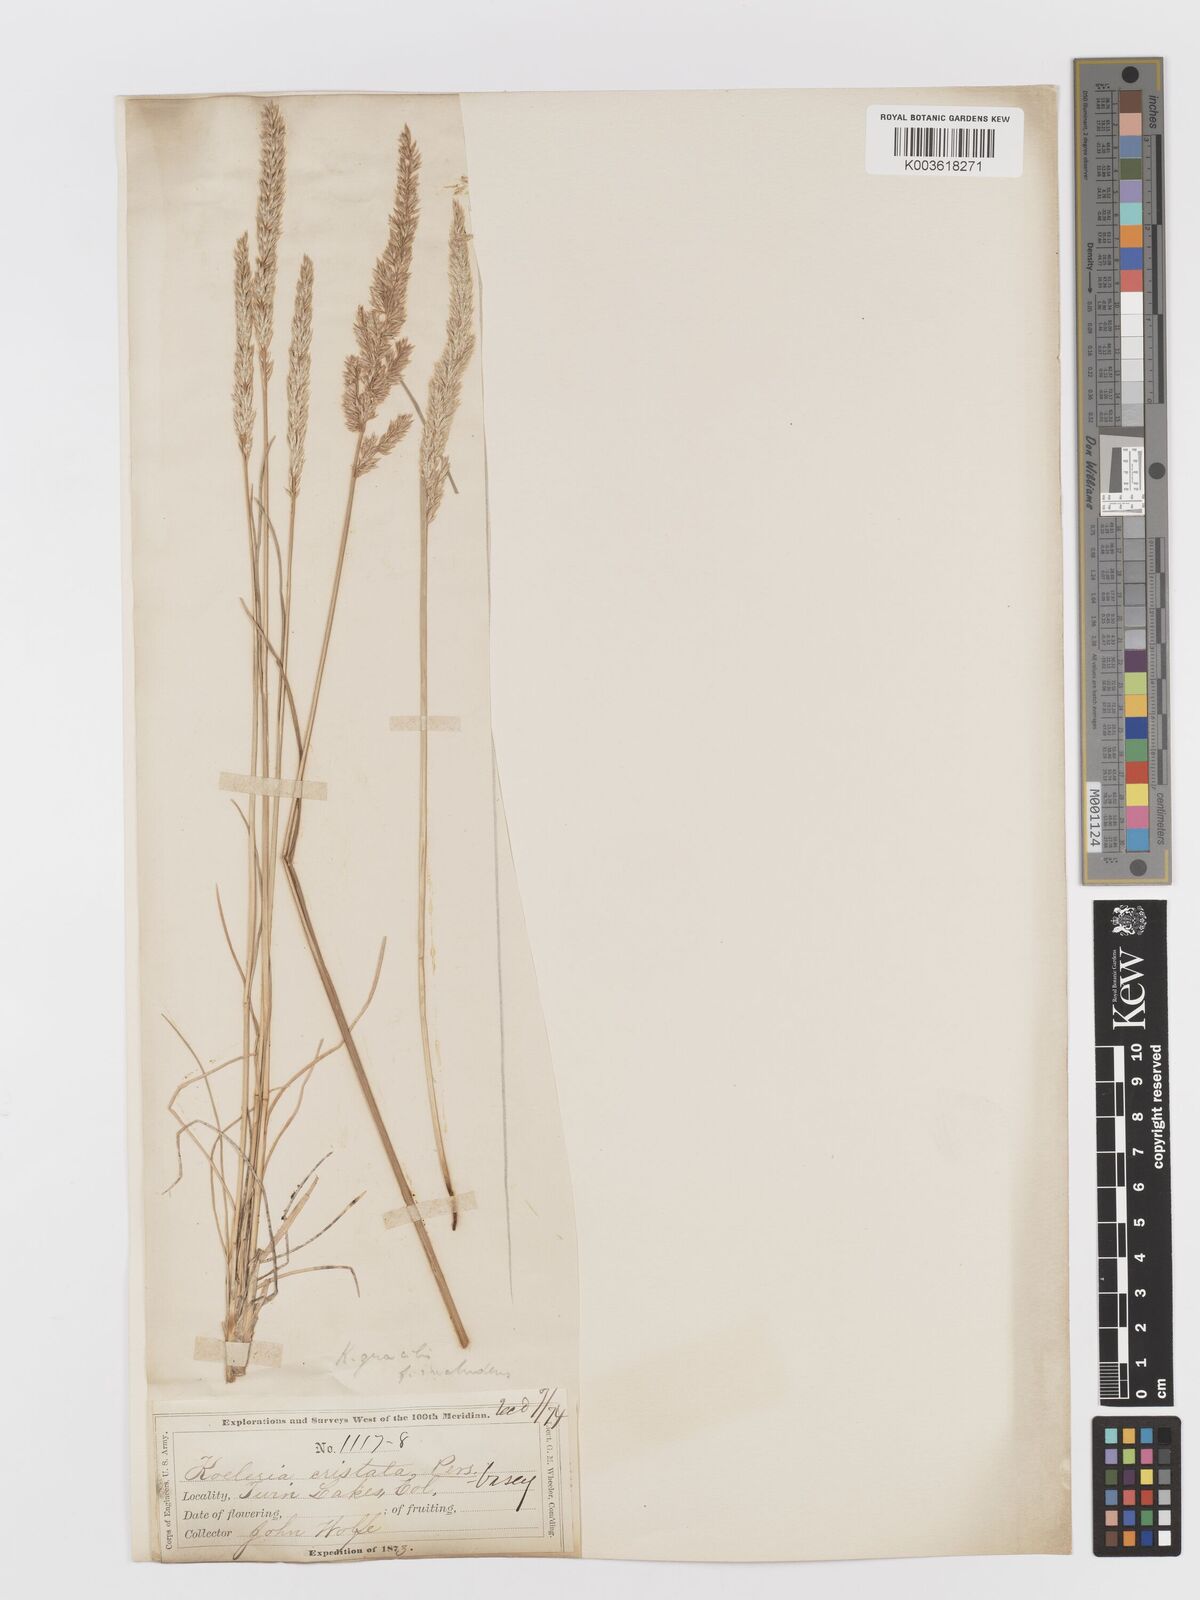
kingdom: Plantae
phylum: Tracheophyta
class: Liliopsida
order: Poales
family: Poaceae
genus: Koeleria
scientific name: Koeleria macrantha
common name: Crested hair-grass
